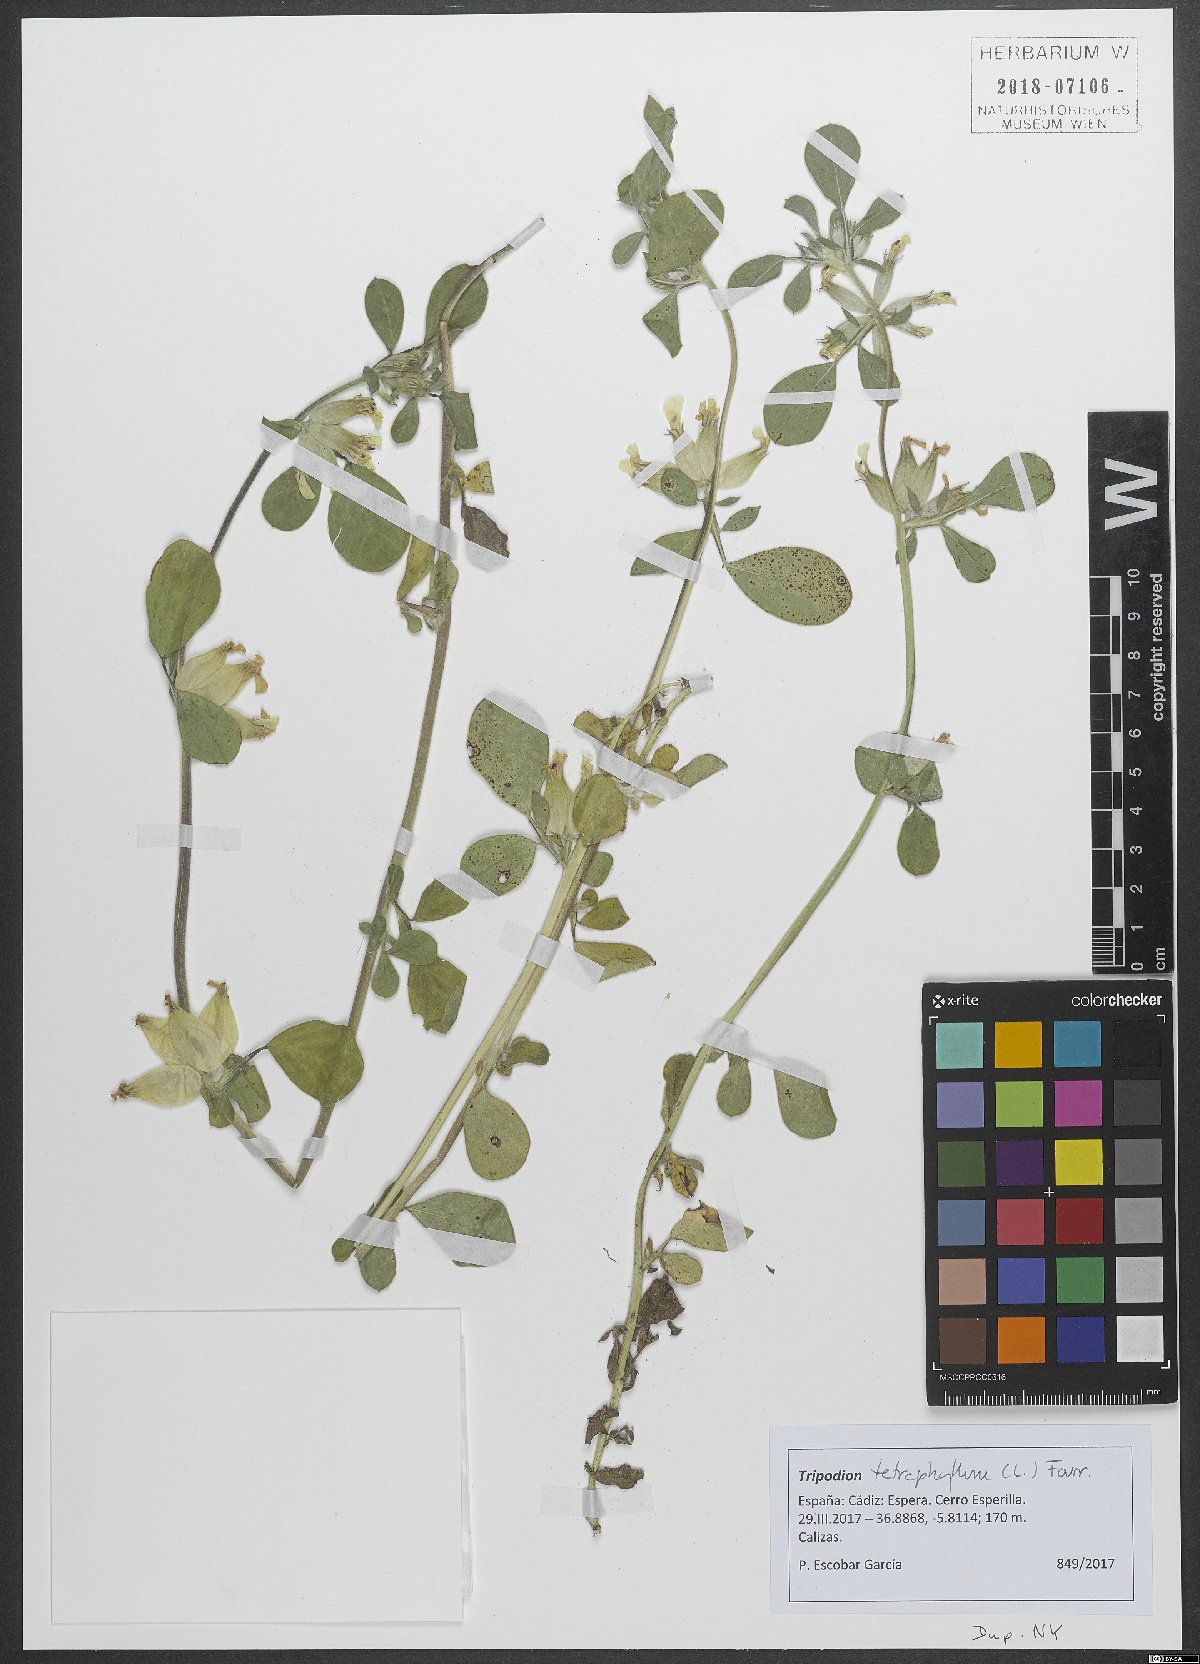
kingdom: Plantae
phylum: Tracheophyta
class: Magnoliopsida
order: Fabales
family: Fabaceae
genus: Tripodion
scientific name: Tripodion tetraphyllum
